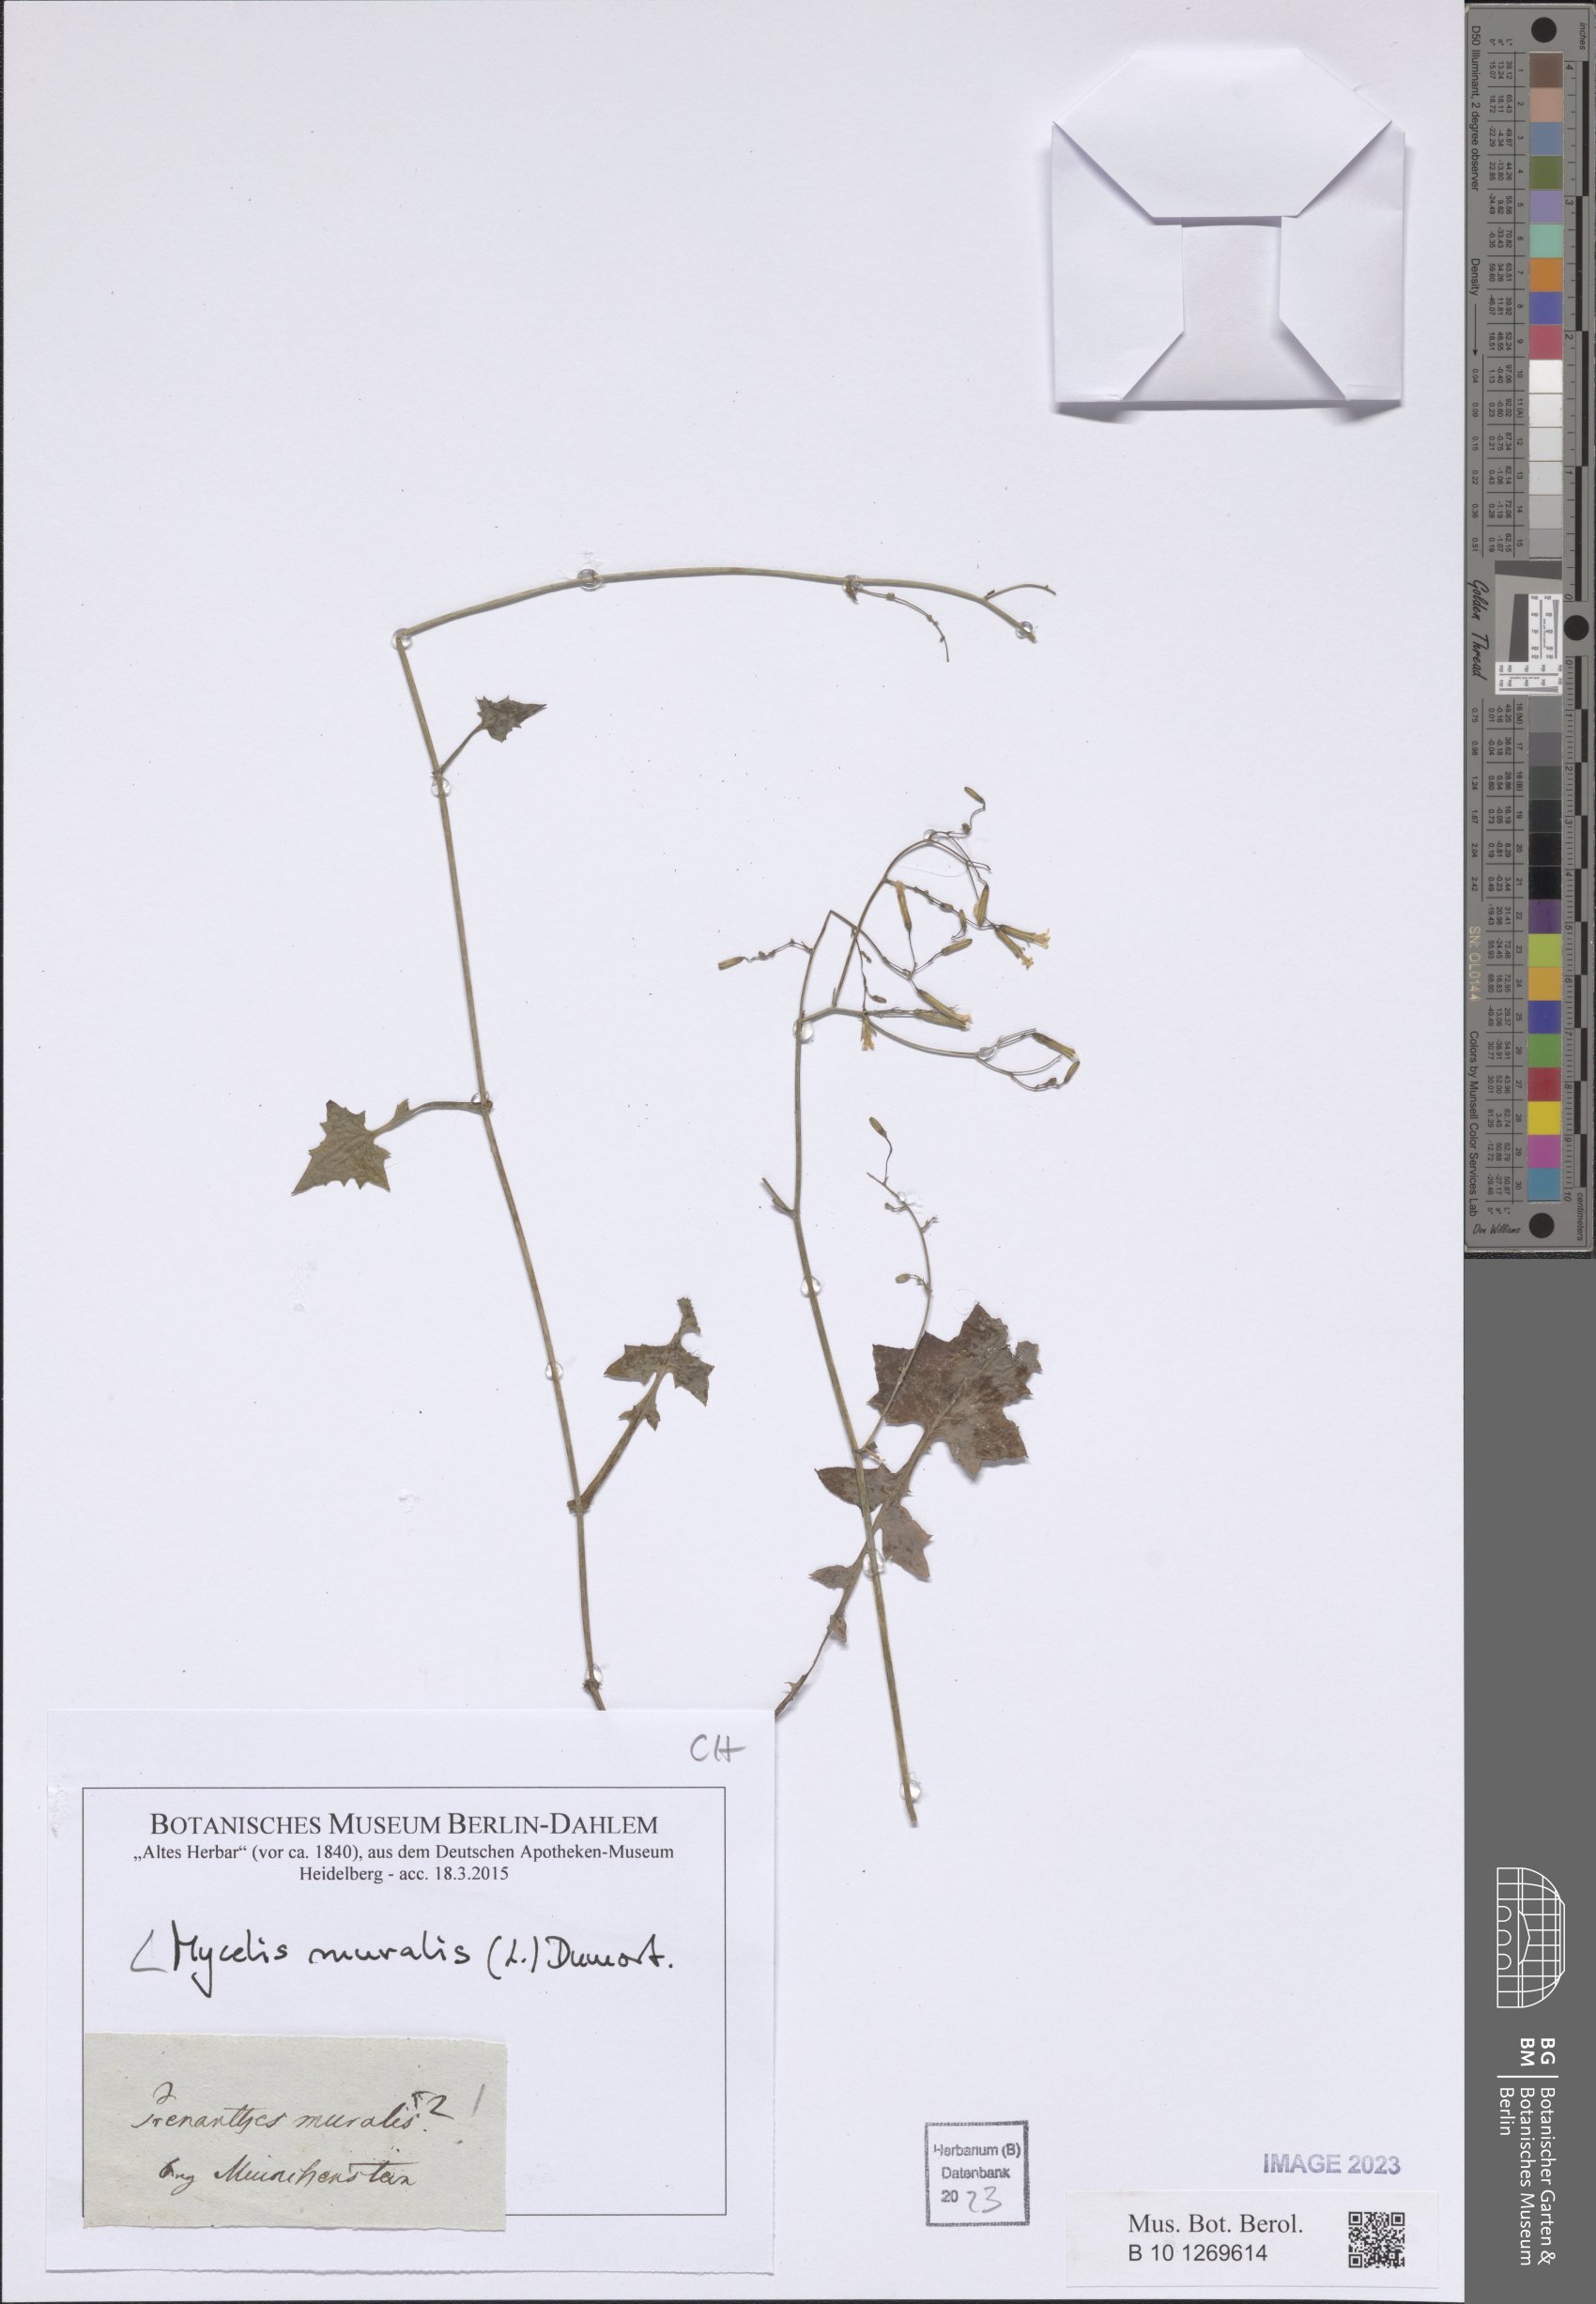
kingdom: Plantae
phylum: Tracheophyta
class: Magnoliopsida
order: Asterales
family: Asteraceae
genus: Mycelis
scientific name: Mycelis muralis
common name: Wall lettuce
